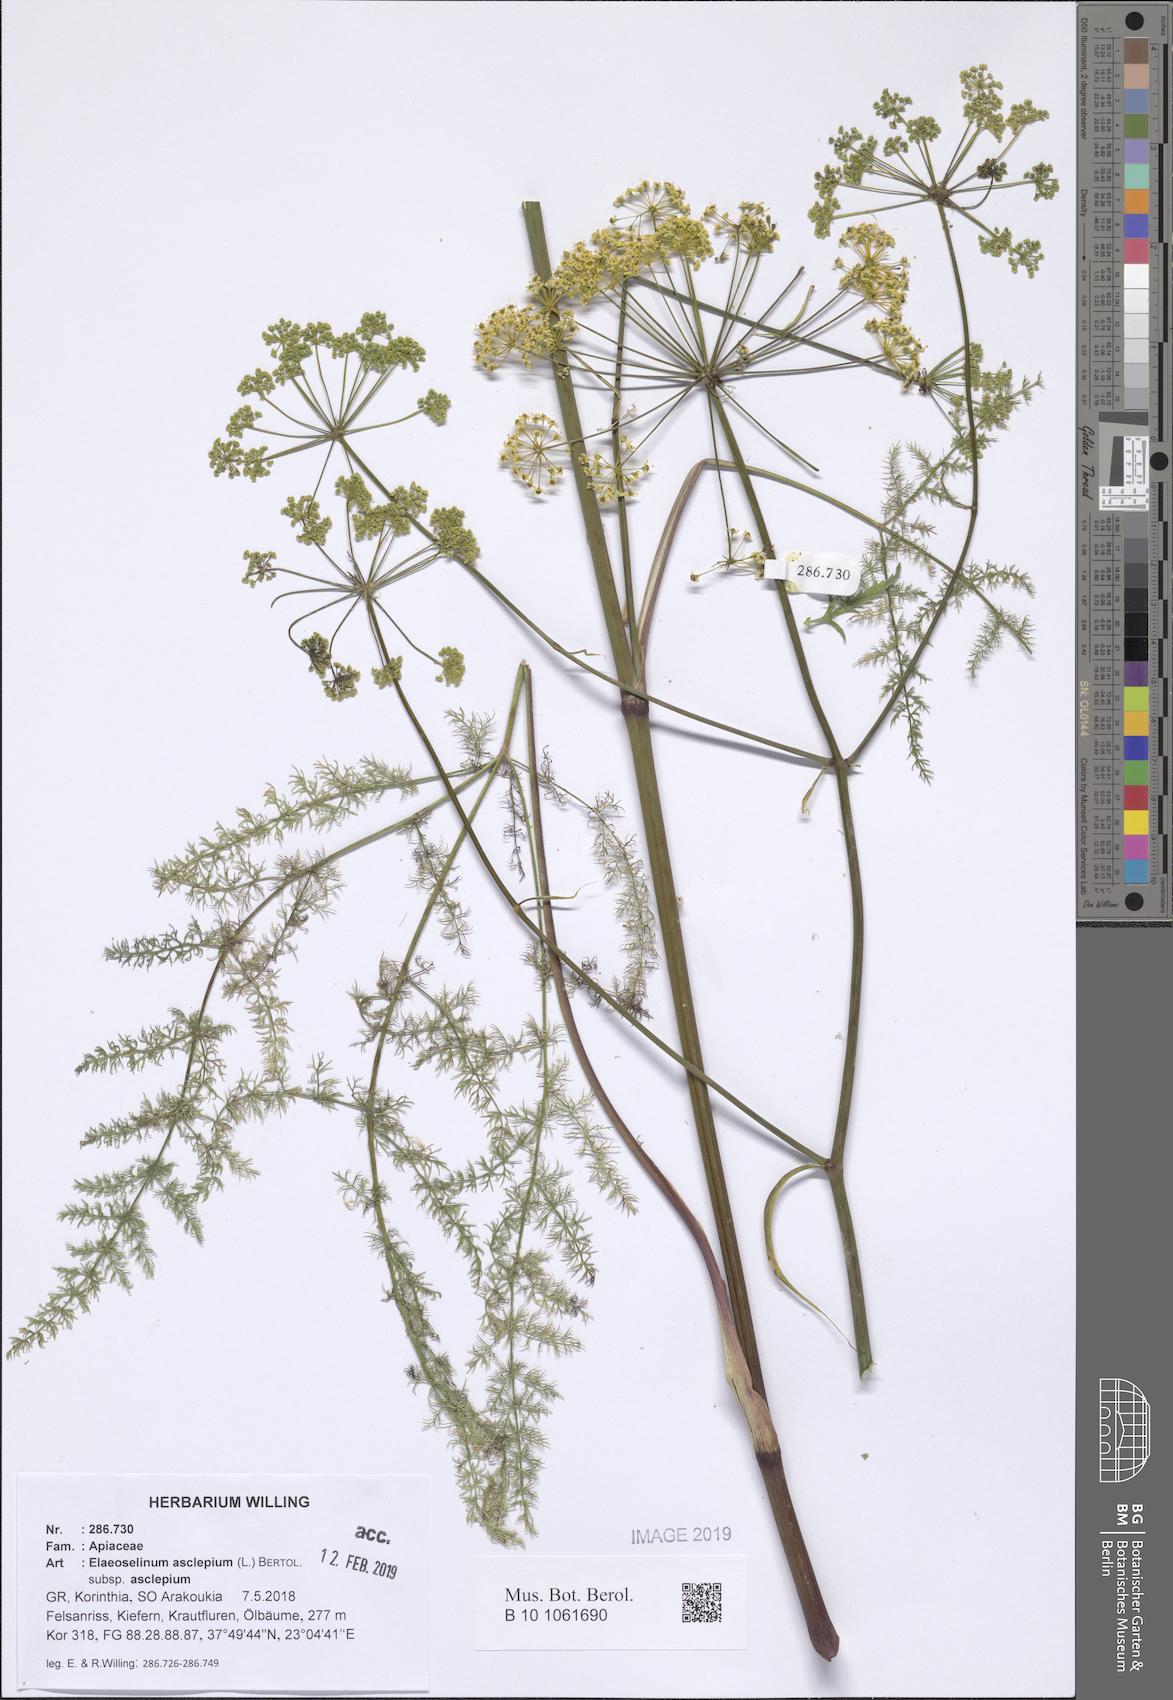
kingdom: Plantae
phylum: Tracheophyta
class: Magnoliopsida
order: Apiales
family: Apiaceae
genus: Thapsia
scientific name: Thapsia asclepium
